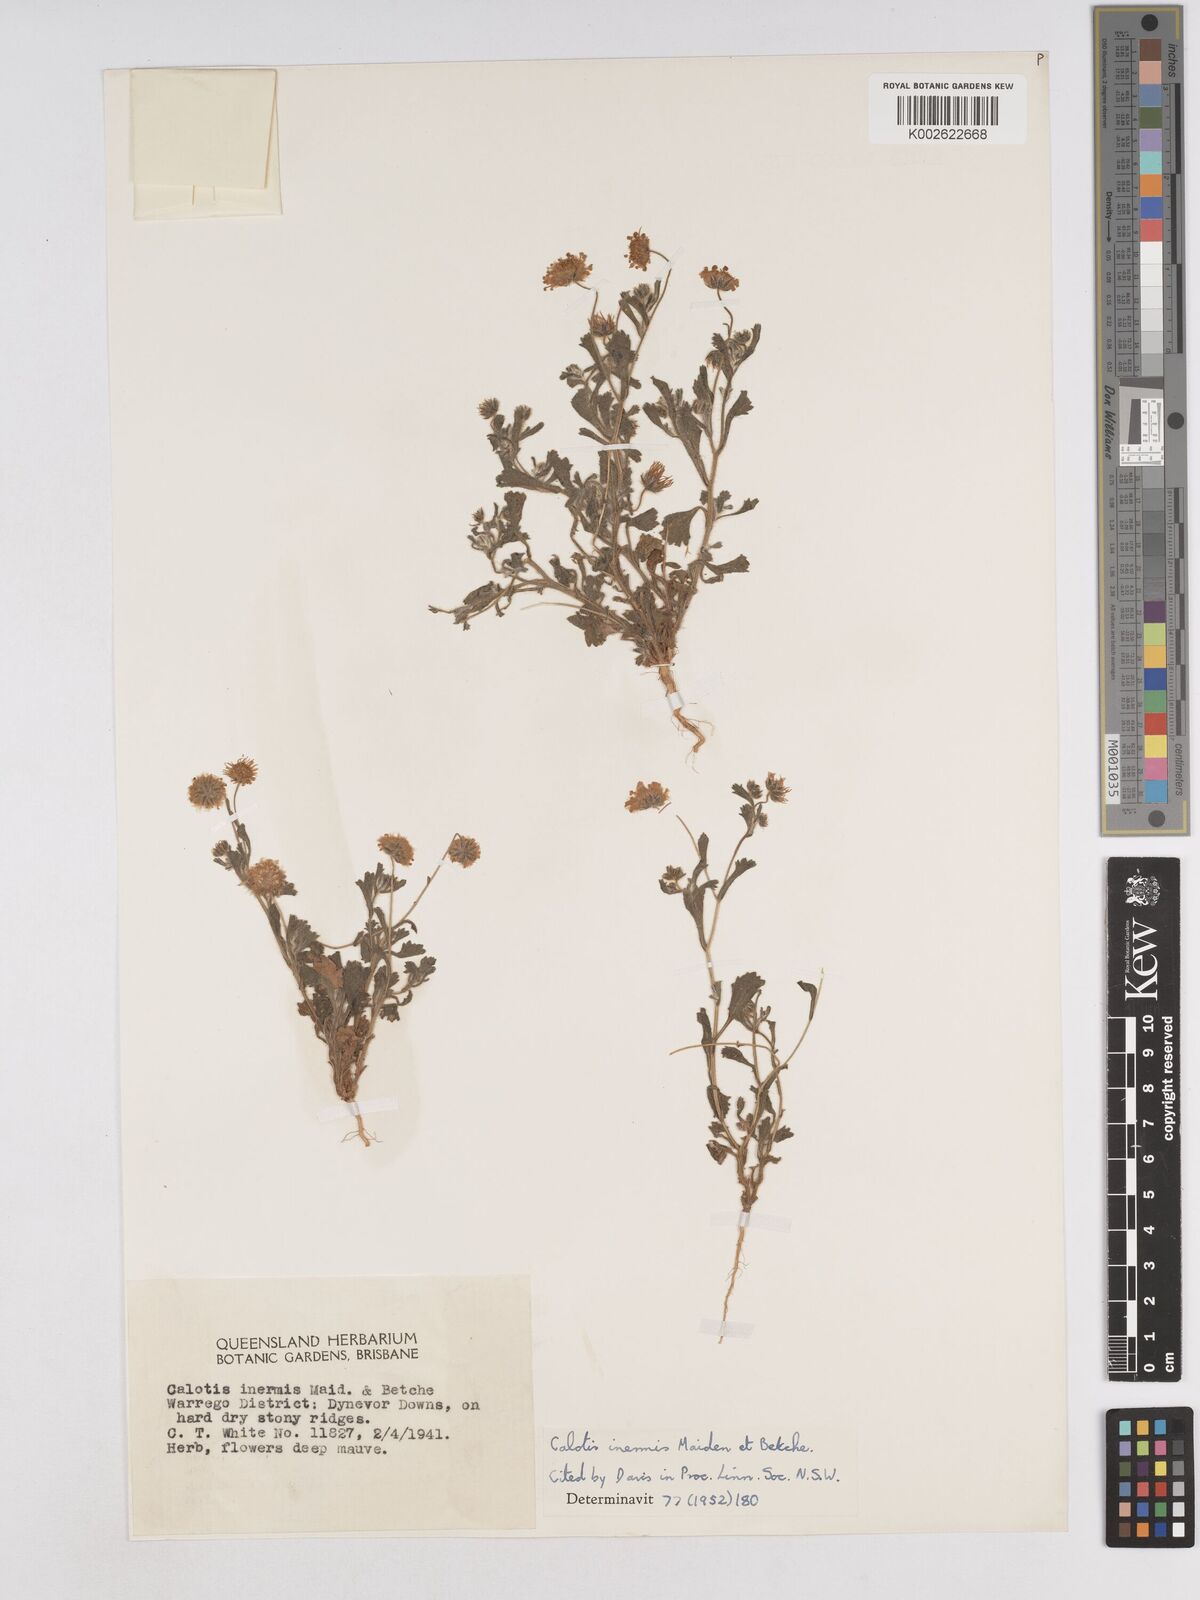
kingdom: Plantae
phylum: Tracheophyta
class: Magnoliopsida
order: Asterales
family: Asteraceae
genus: Calotis
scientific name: Calotis inermis
